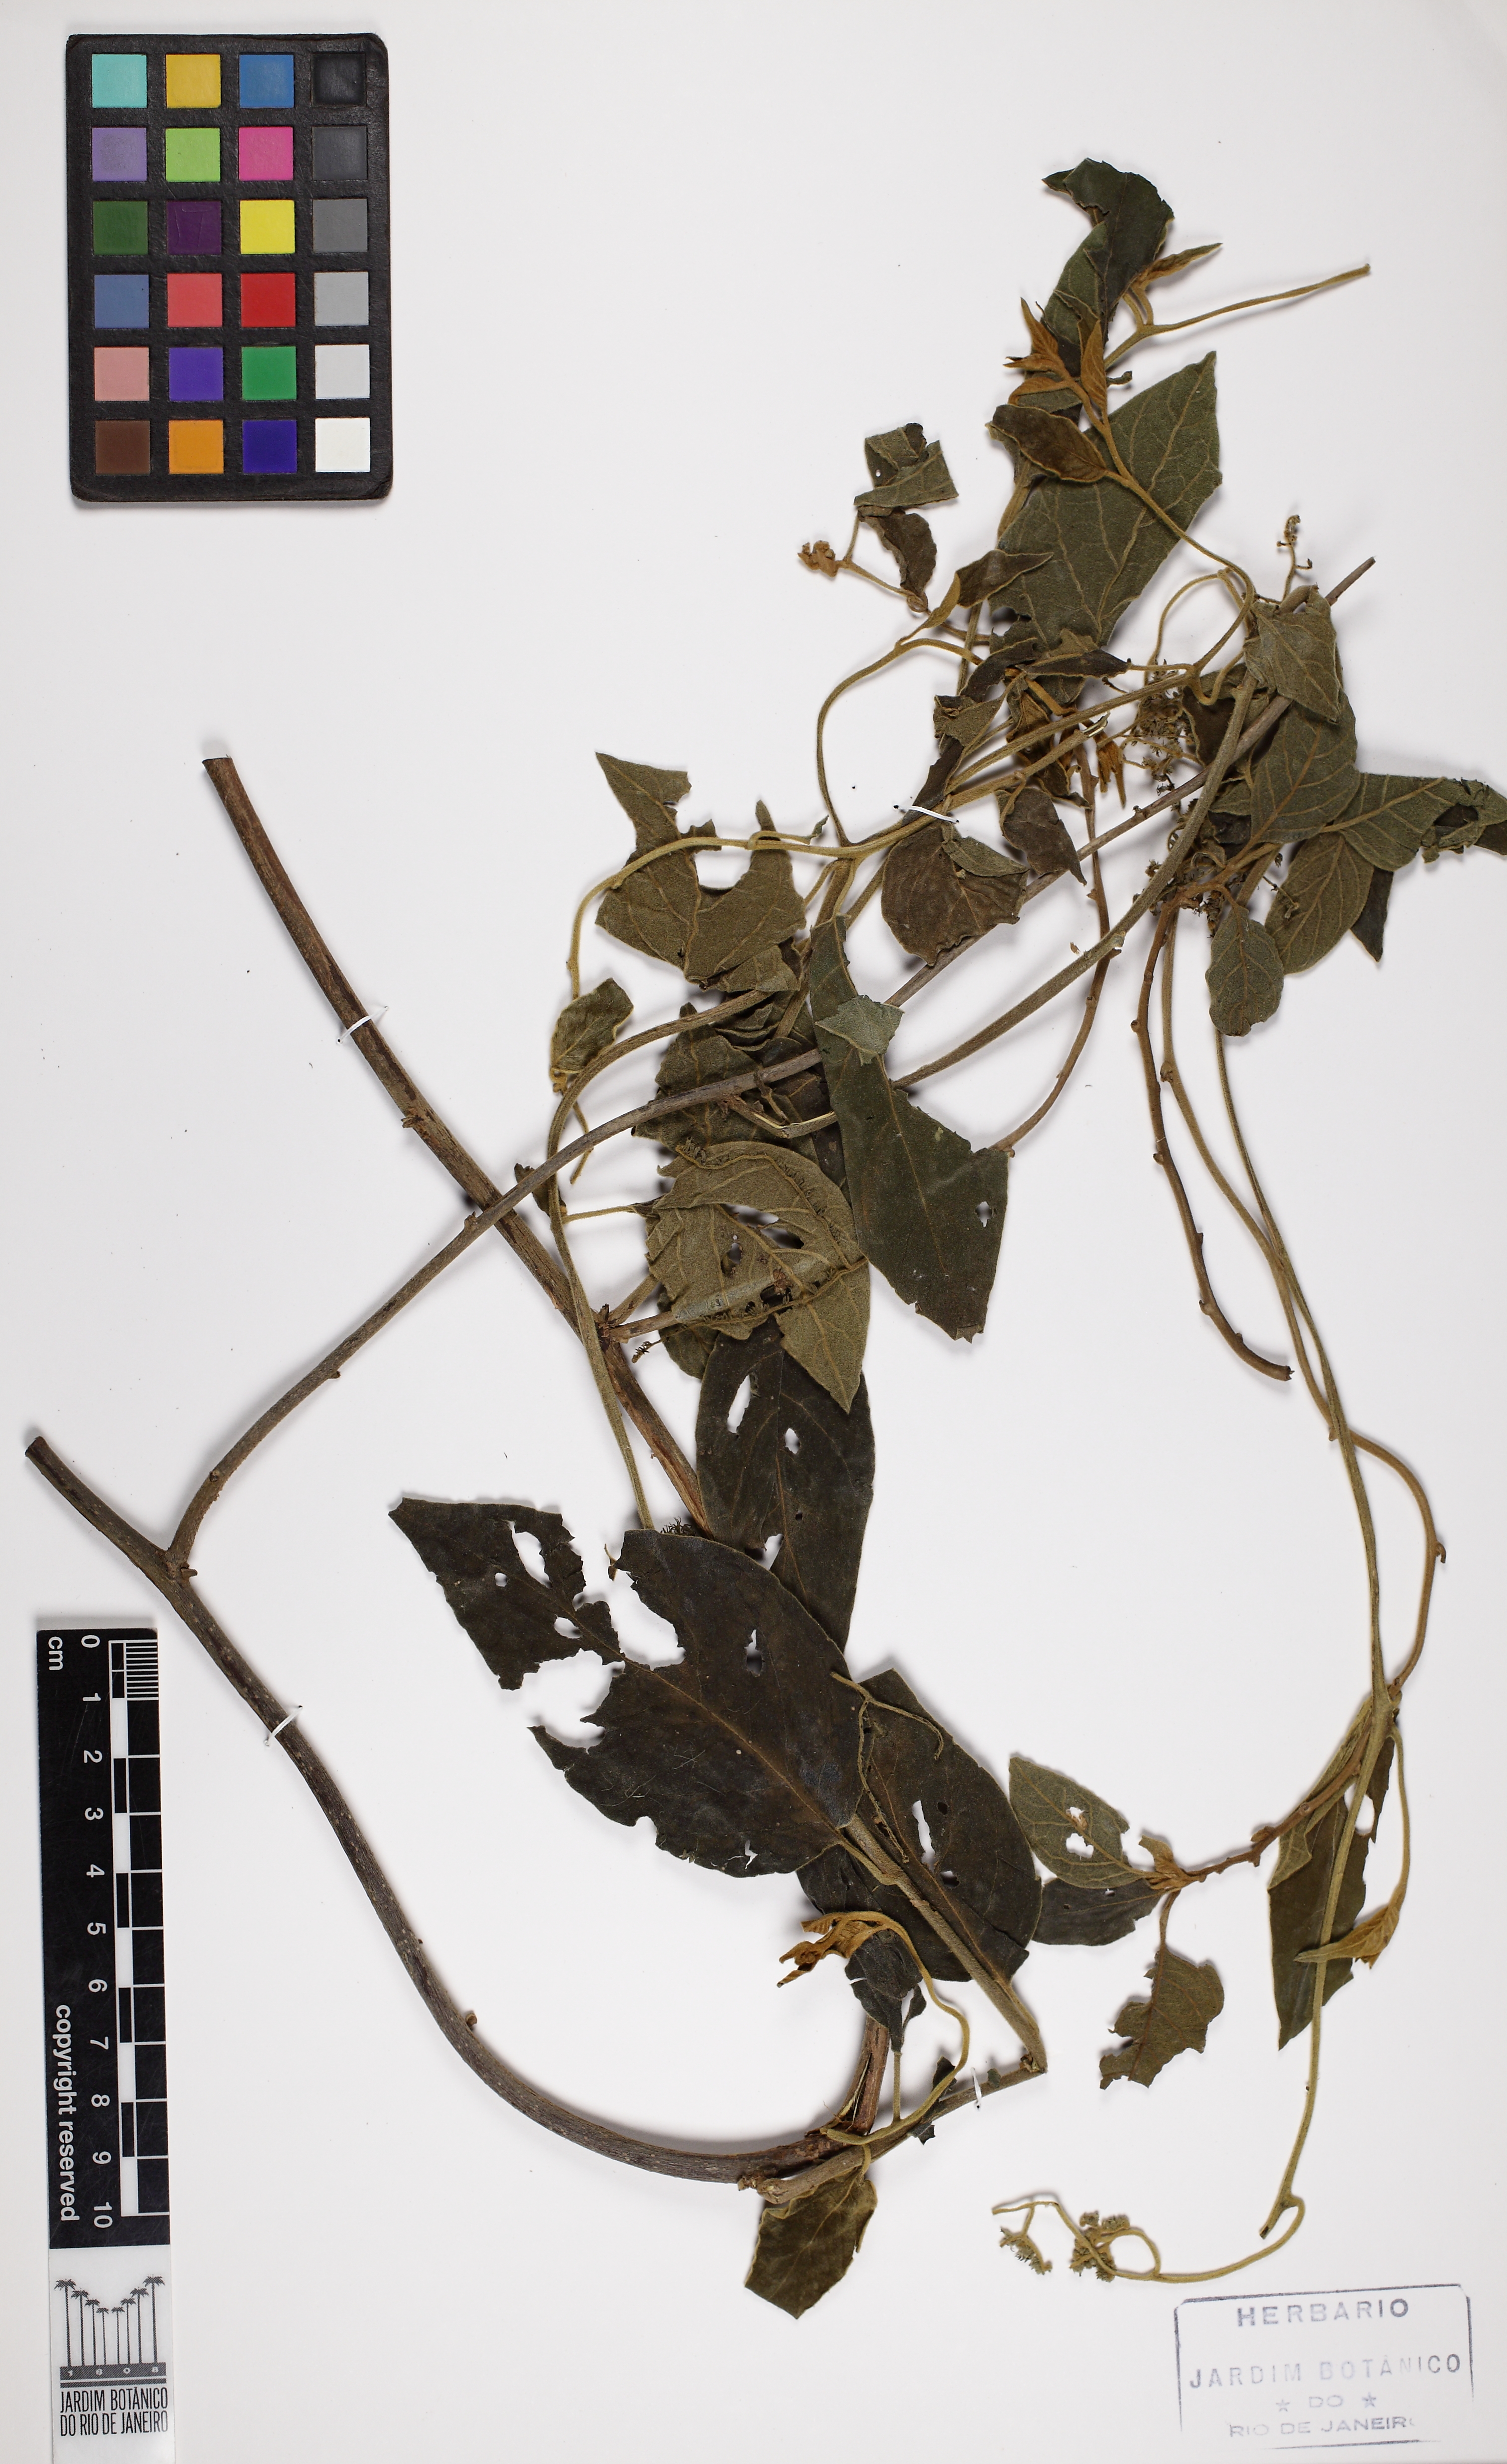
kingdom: Plantae
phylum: Tracheophyta
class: Magnoliopsida
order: Boraginales
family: Heliotropiaceae
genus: Myriopus
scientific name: Myriopus salzmannii
